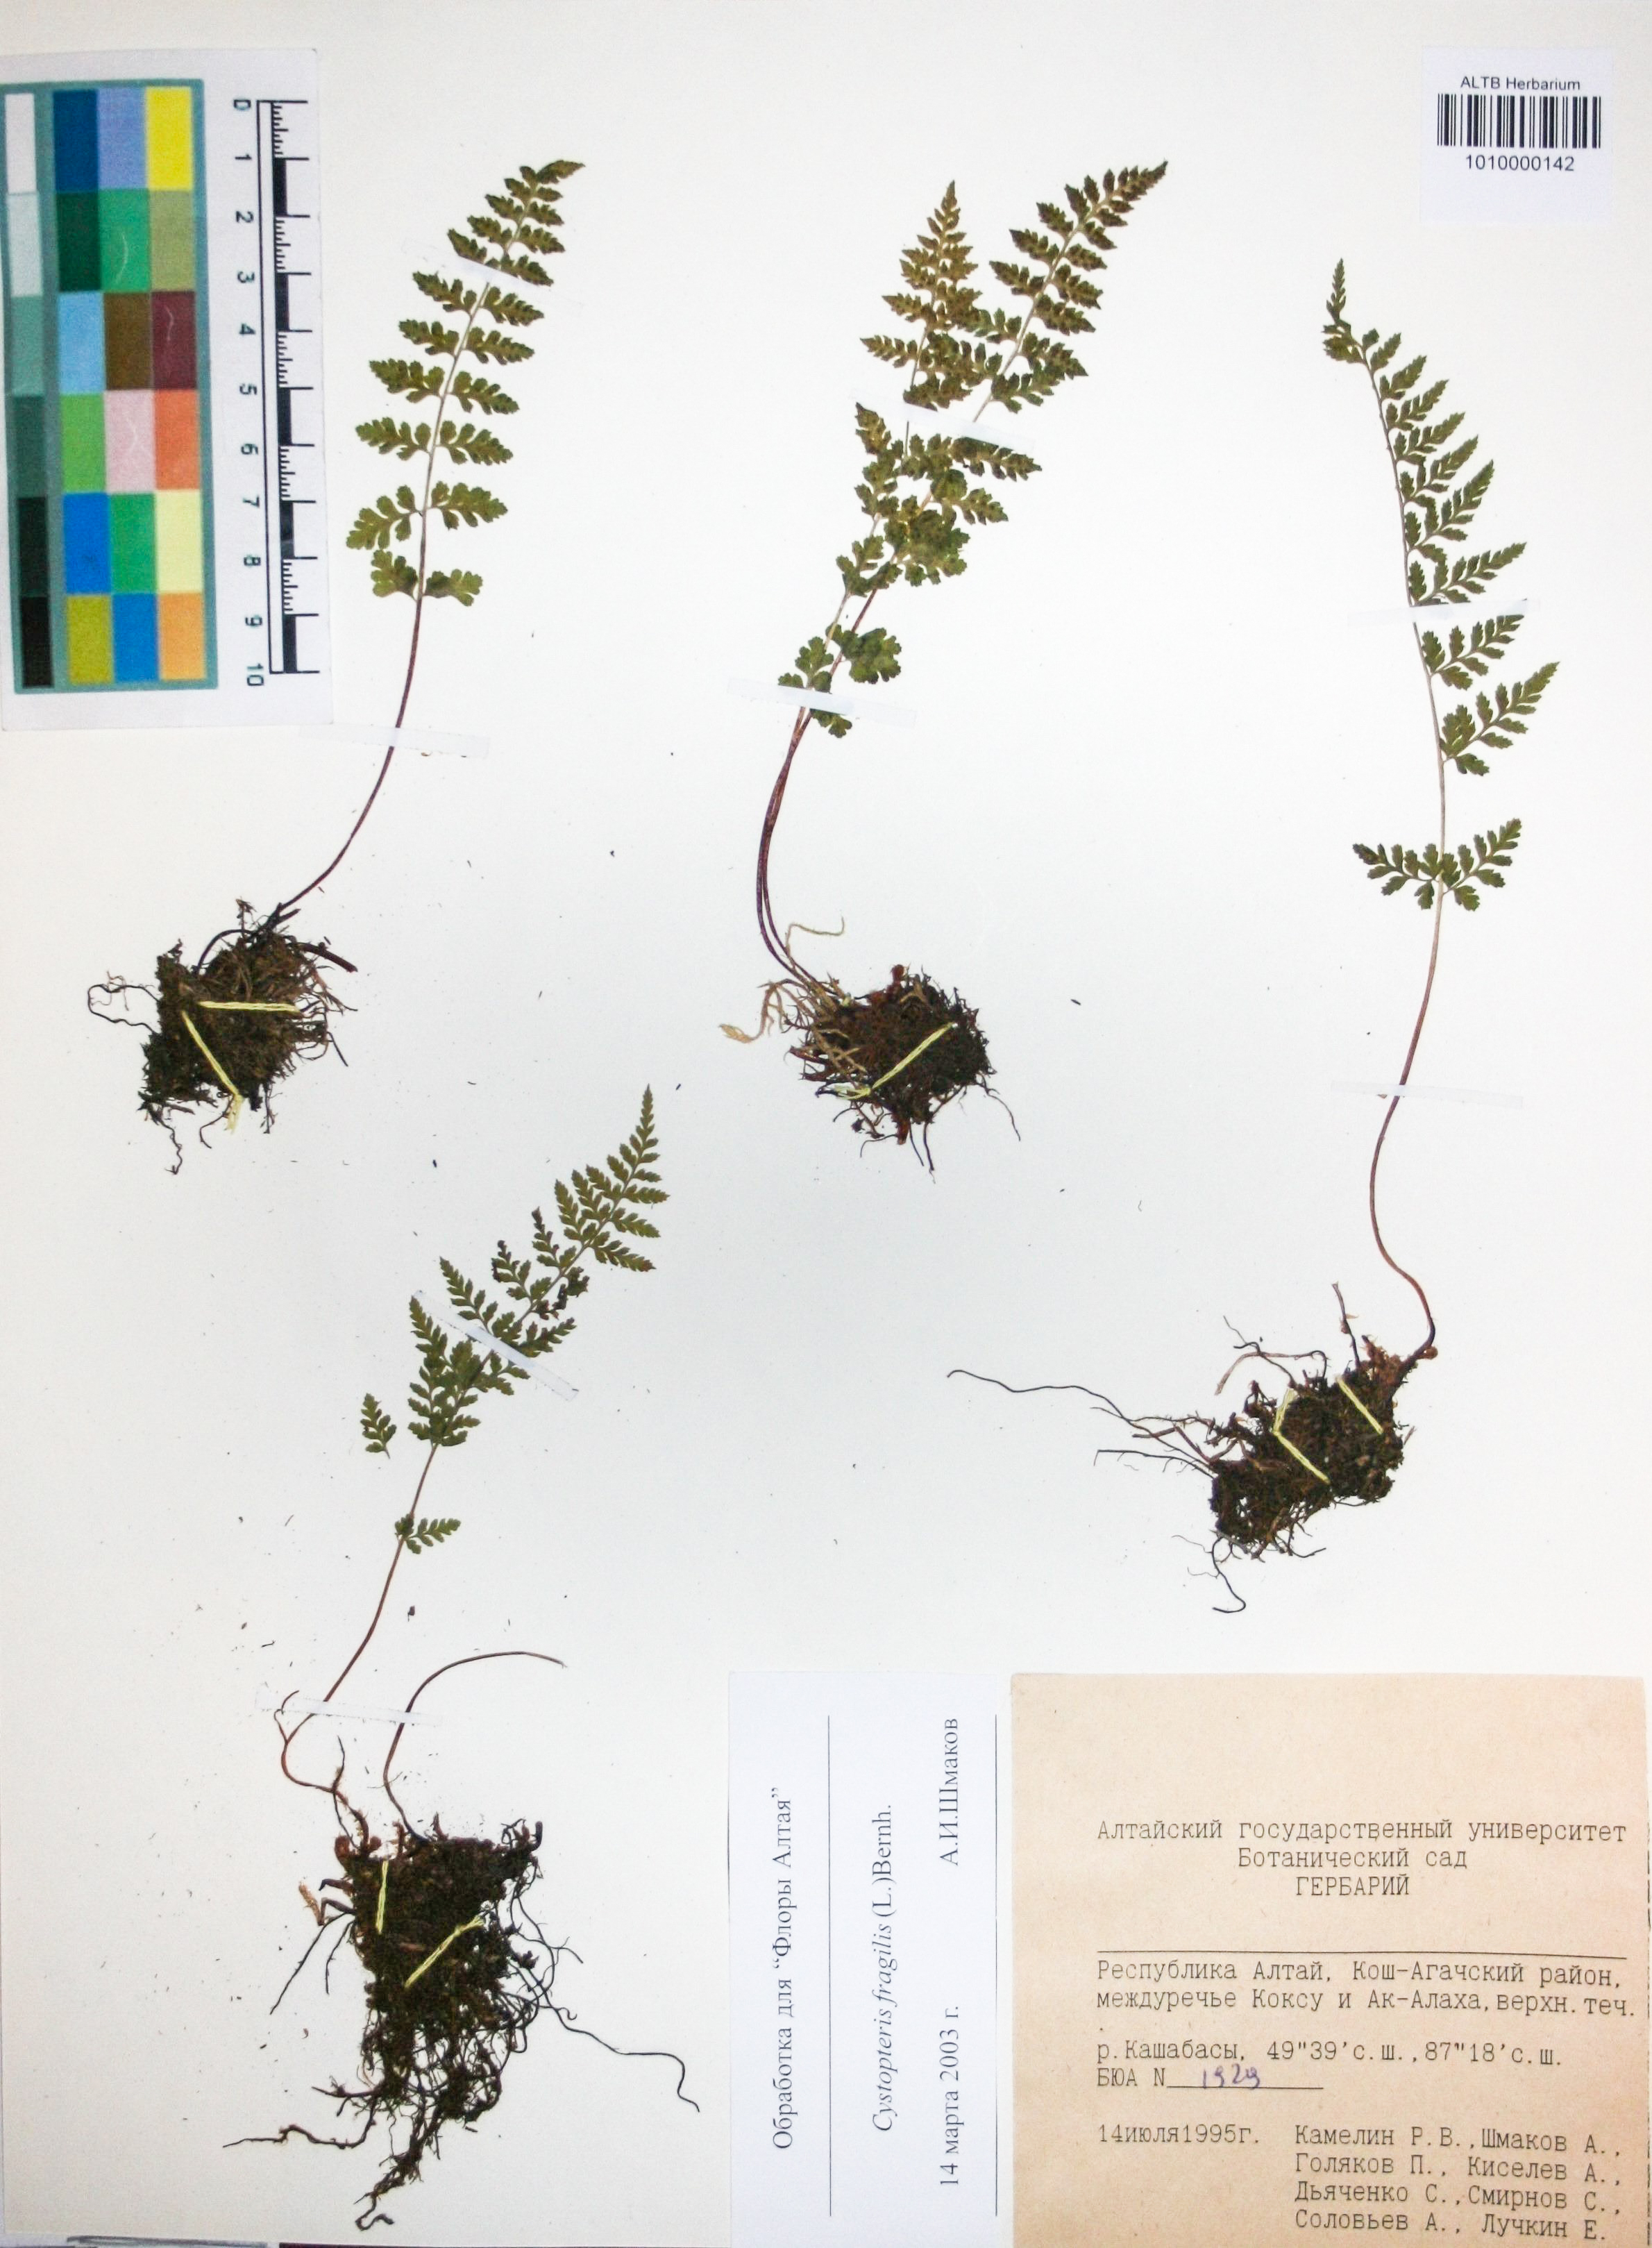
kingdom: Plantae
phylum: Tracheophyta
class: Polypodiopsida
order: Polypodiales
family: Cystopteridaceae
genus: Cystopteris
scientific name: Cystopteris fragilis
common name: Brittle bladder fern
